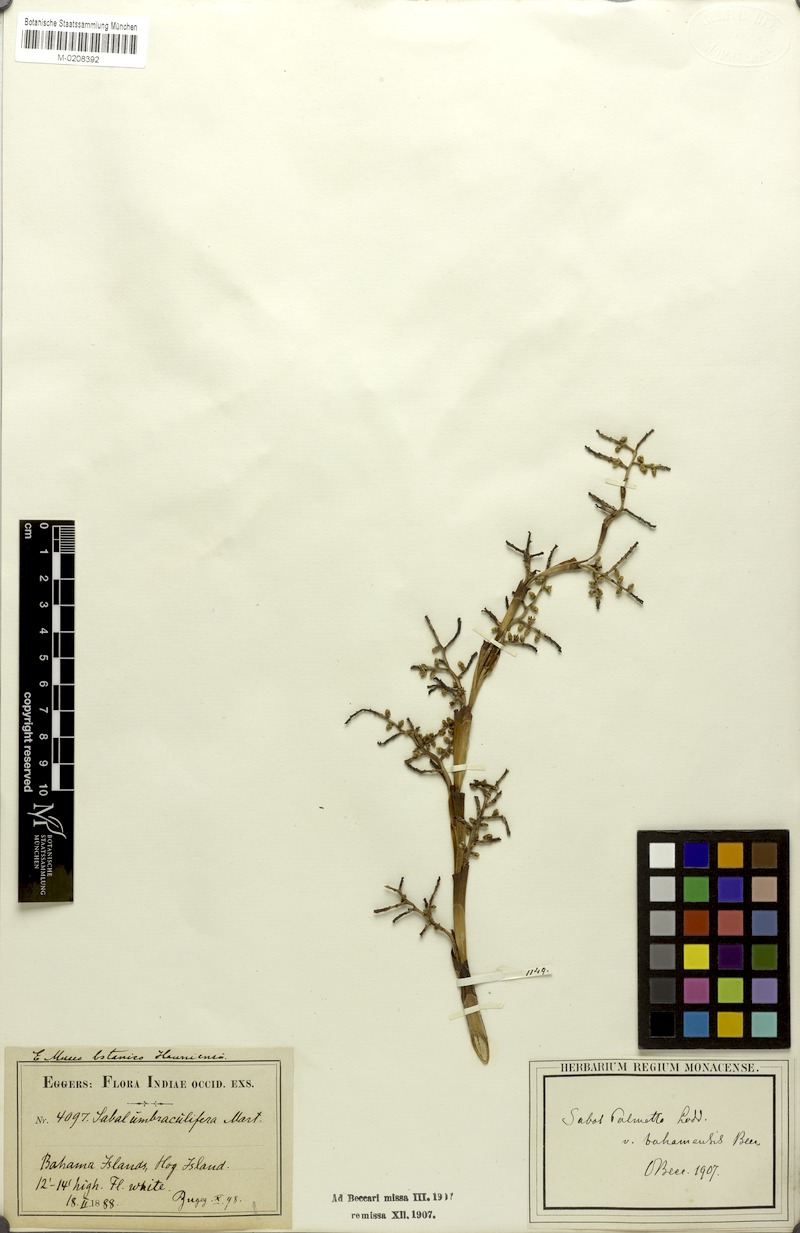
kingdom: Plantae
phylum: Tracheophyta
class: Liliopsida
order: Arecales
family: Arecaceae
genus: Sabal
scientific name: Sabal palmetto
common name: Blue palmetto
